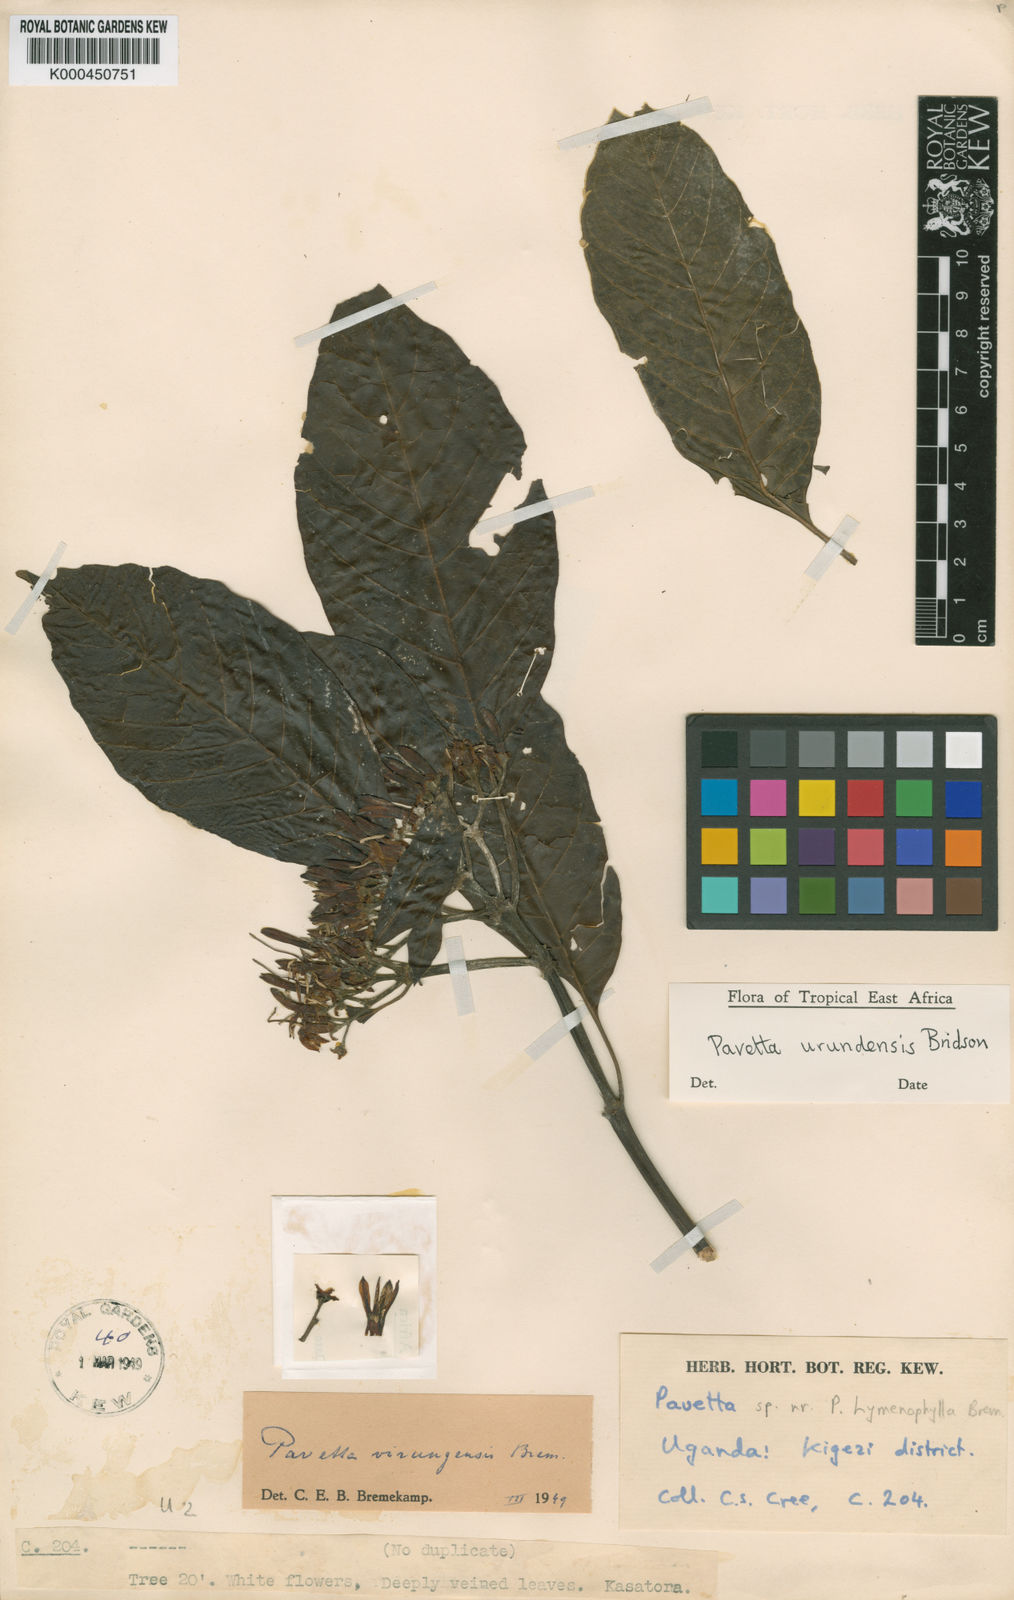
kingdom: Plantae
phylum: Tracheophyta
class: Magnoliopsida
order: Gentianales
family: Rubiaceae
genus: Pavetta
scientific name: Pavetta urundensis
